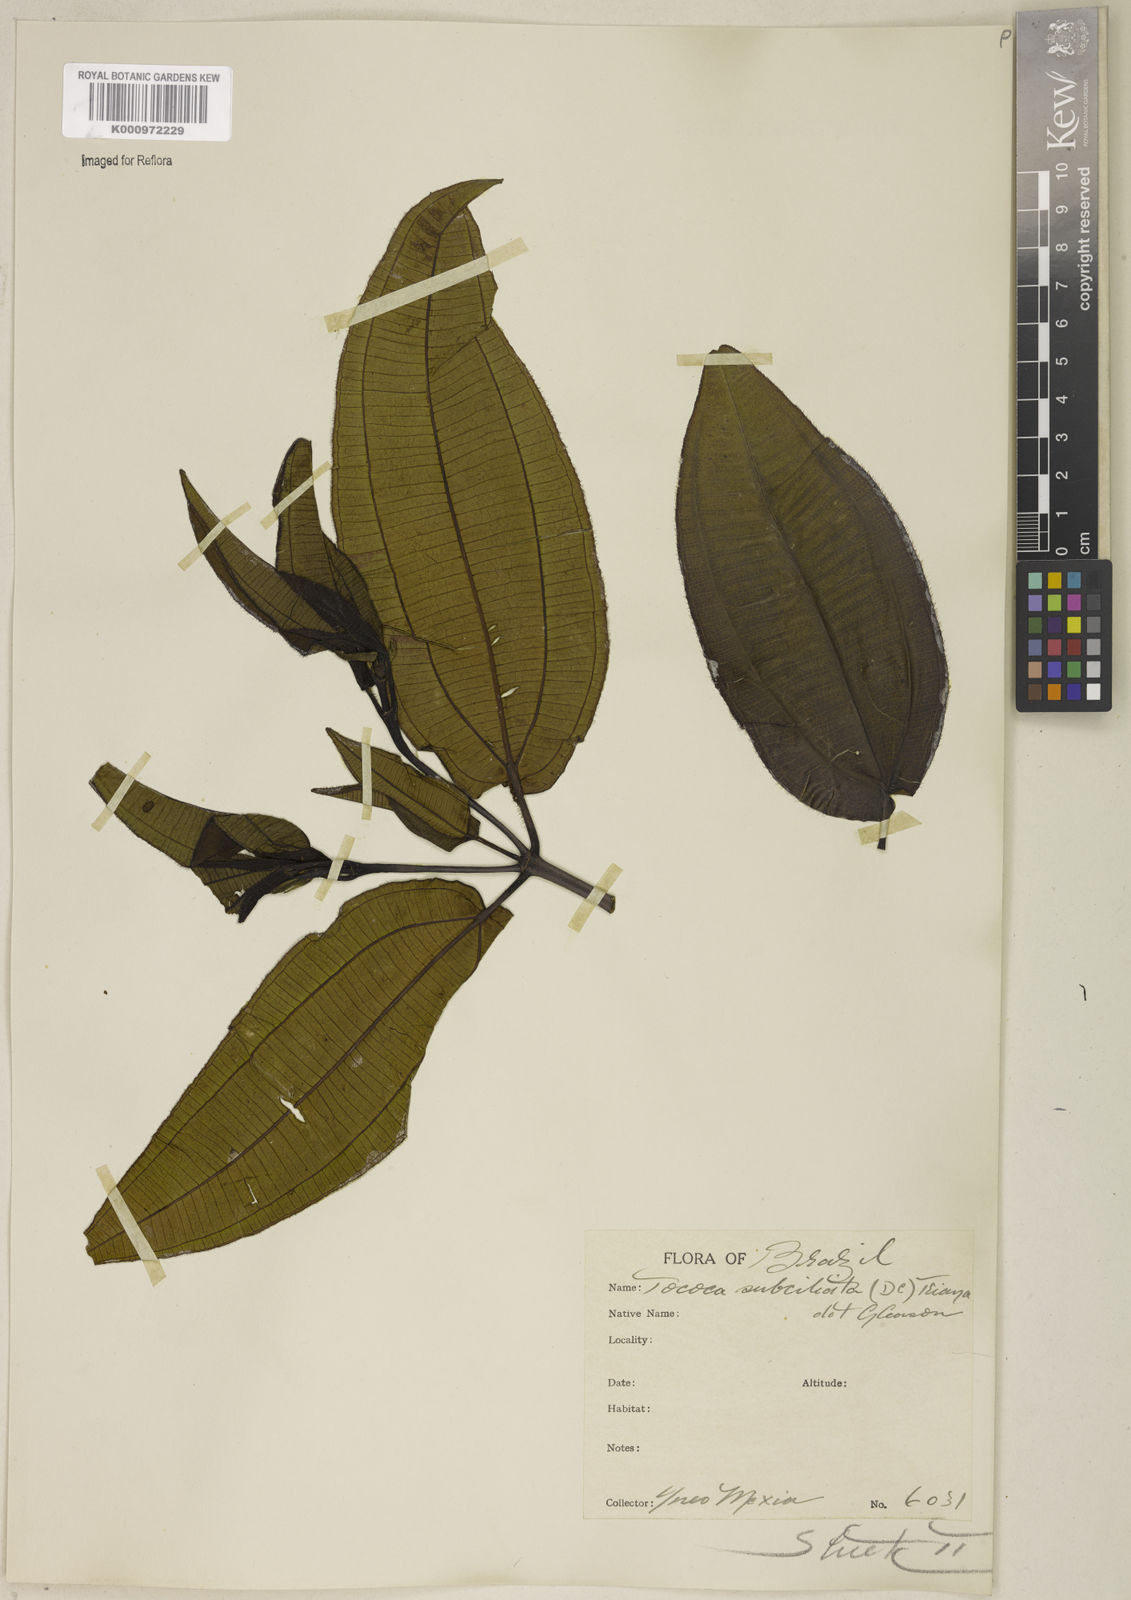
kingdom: Plantae
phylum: Tracheophyta
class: Magnoliopsida
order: Myrtales
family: Melastomataceae
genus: Miconia
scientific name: Miconia subciliata
